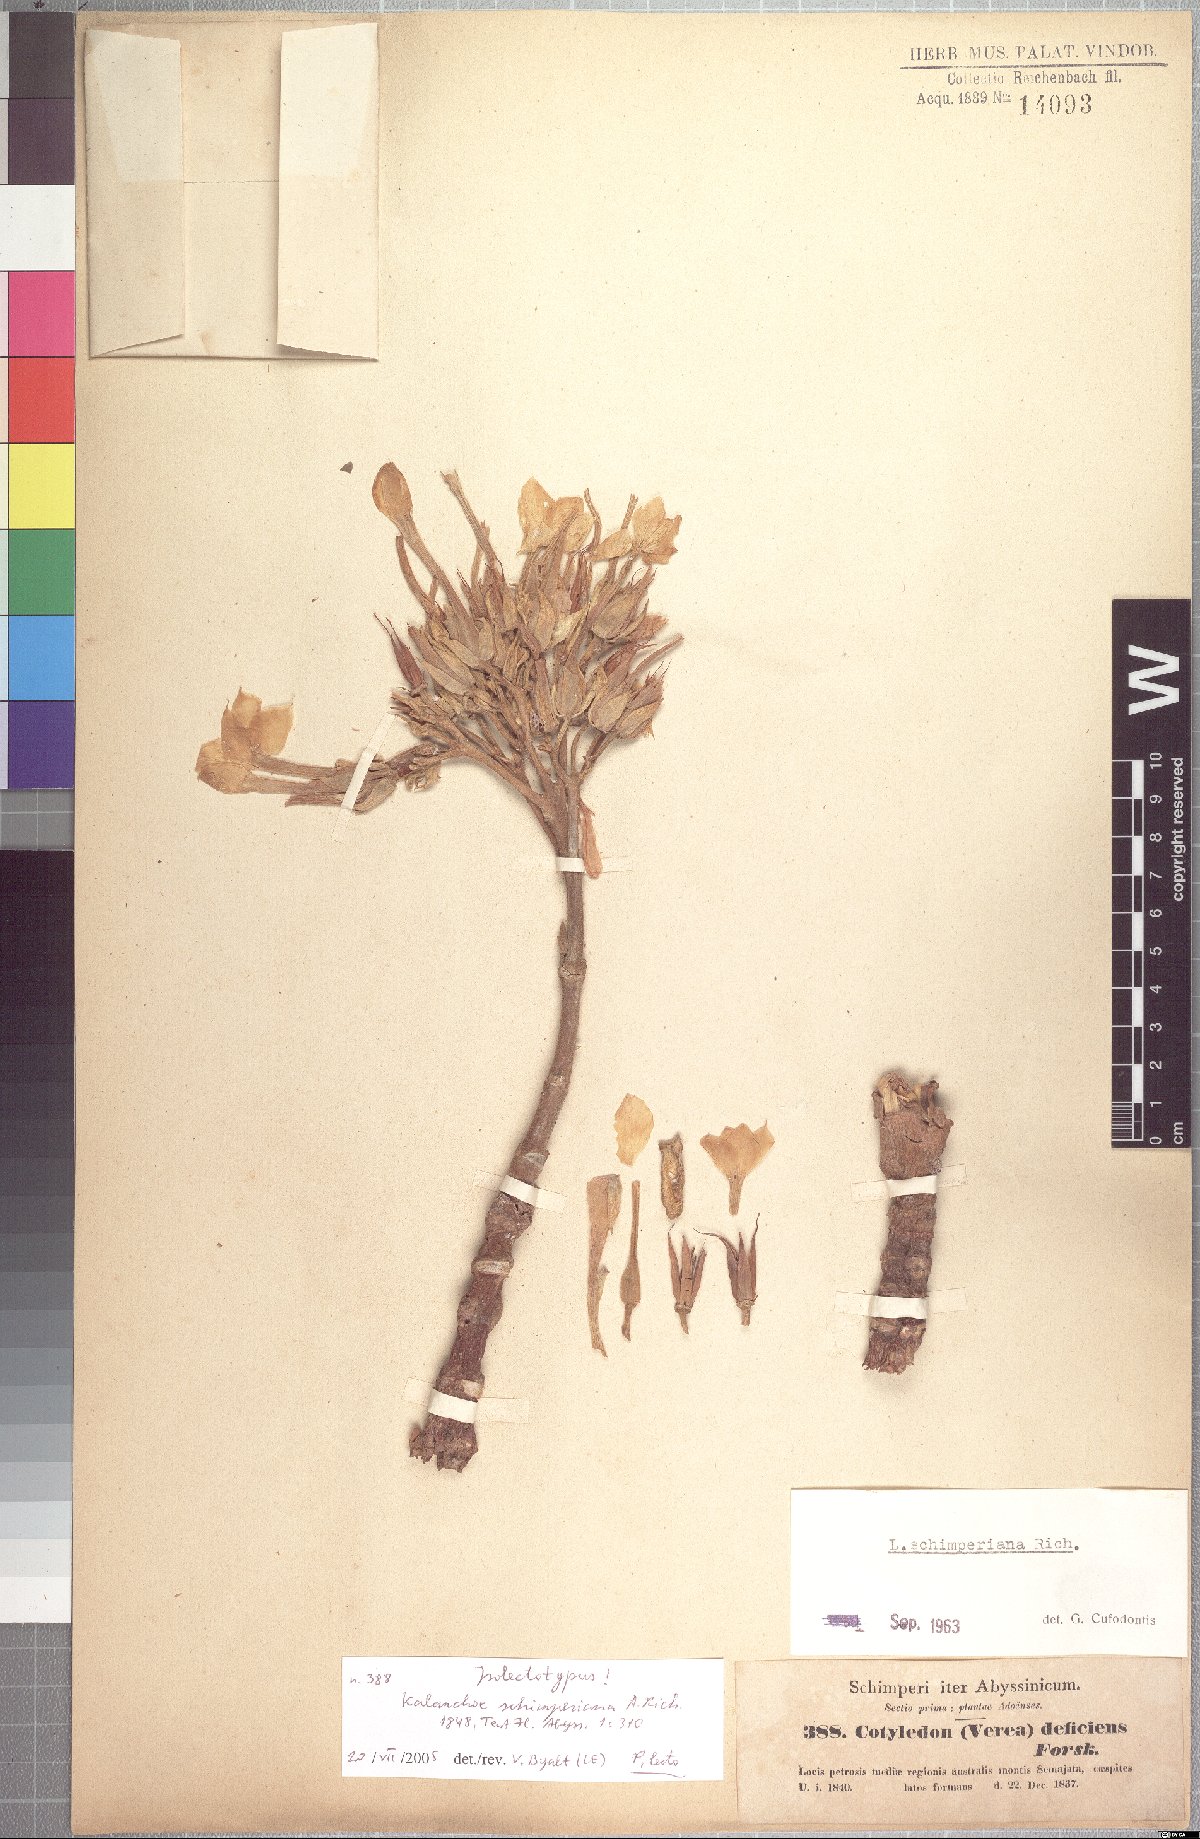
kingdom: Plantae
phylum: Tracheophyta
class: Magnoliopsida
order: Saxifragales
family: Crassulaceae
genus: Kalanchoe
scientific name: Kalanchoe schimperiana
